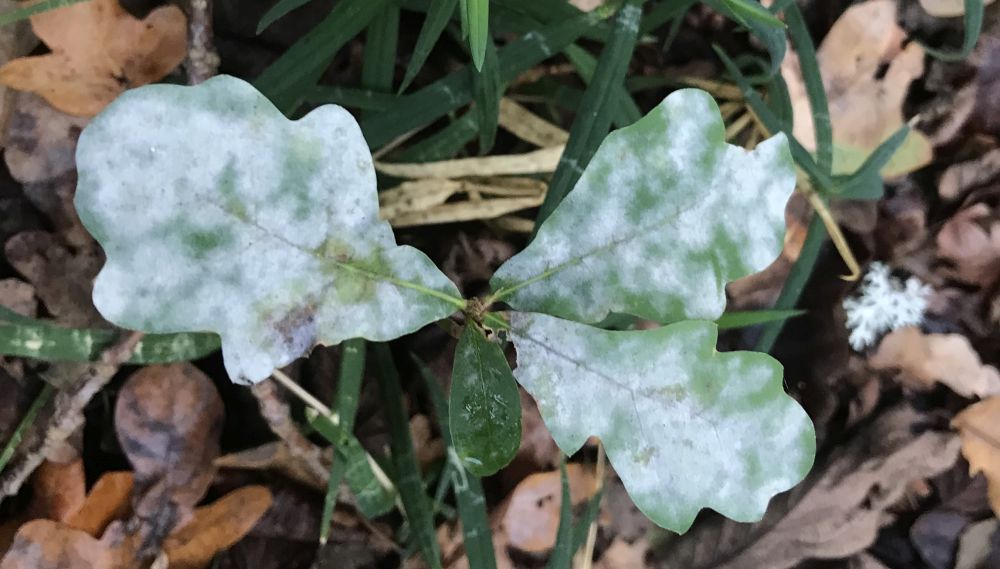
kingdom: Fungi
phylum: Ascomycota
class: Leotiomycetes
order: Helotiales
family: Erysiphaceae
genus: Erysiphe
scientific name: Erysiphe alphitoides
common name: ege-meldug
